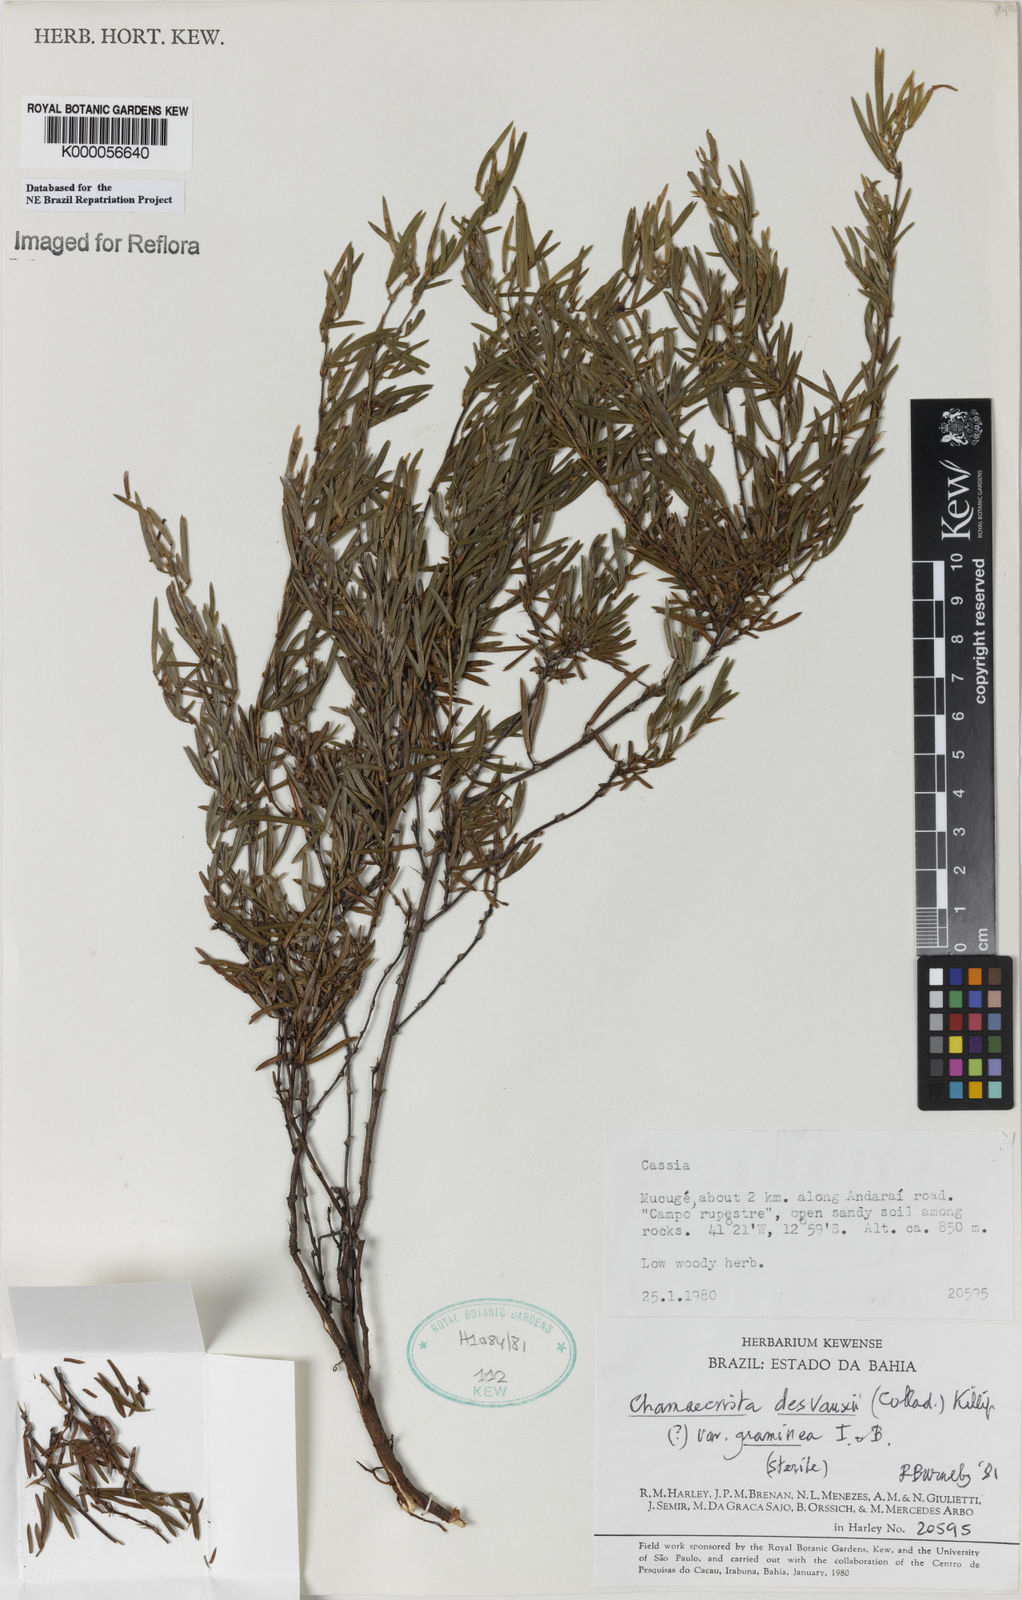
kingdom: Plantae
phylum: Tracheophyta
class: Magnoliopsida
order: Fabales
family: Fabaceae
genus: Chamaecrista
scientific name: Chamaecrista desvauxii
